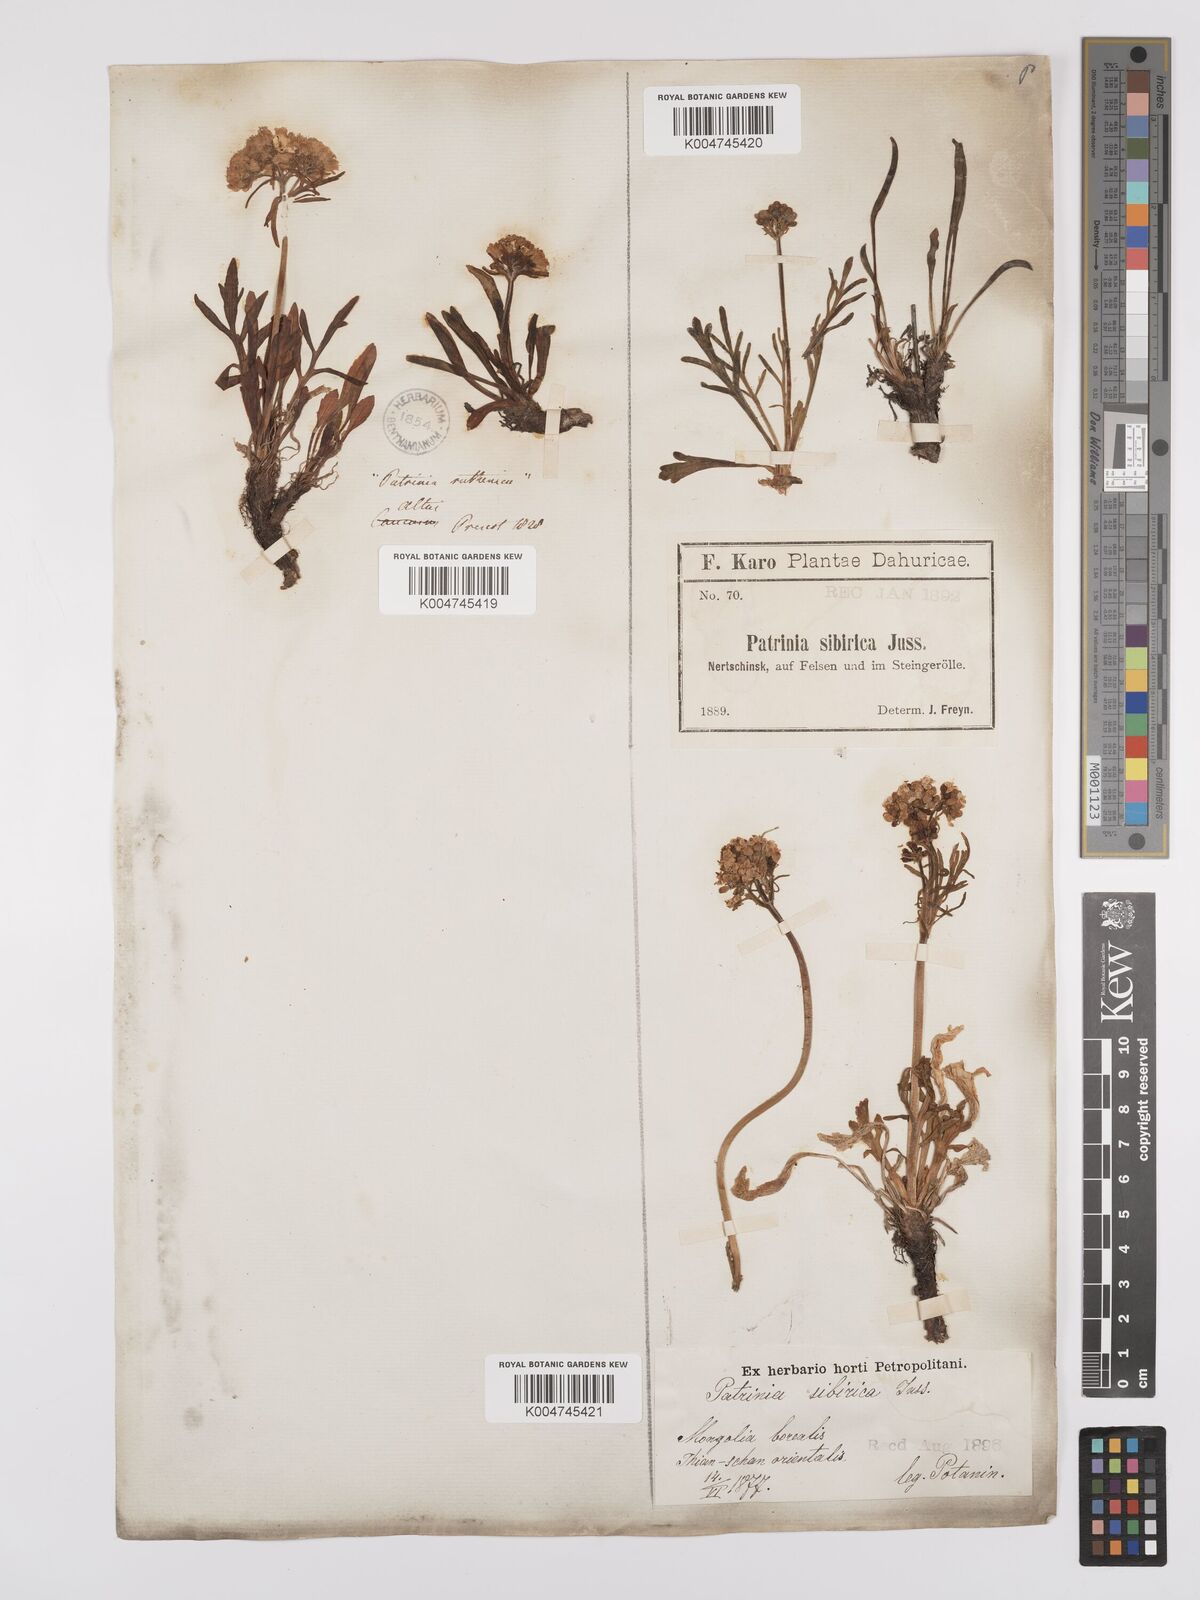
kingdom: Plantae
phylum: Tracheophyta
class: Magnoliopsida
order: Dipsacales
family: Caprifoliaceae
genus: Patrinia
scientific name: Patrinia sibirica
